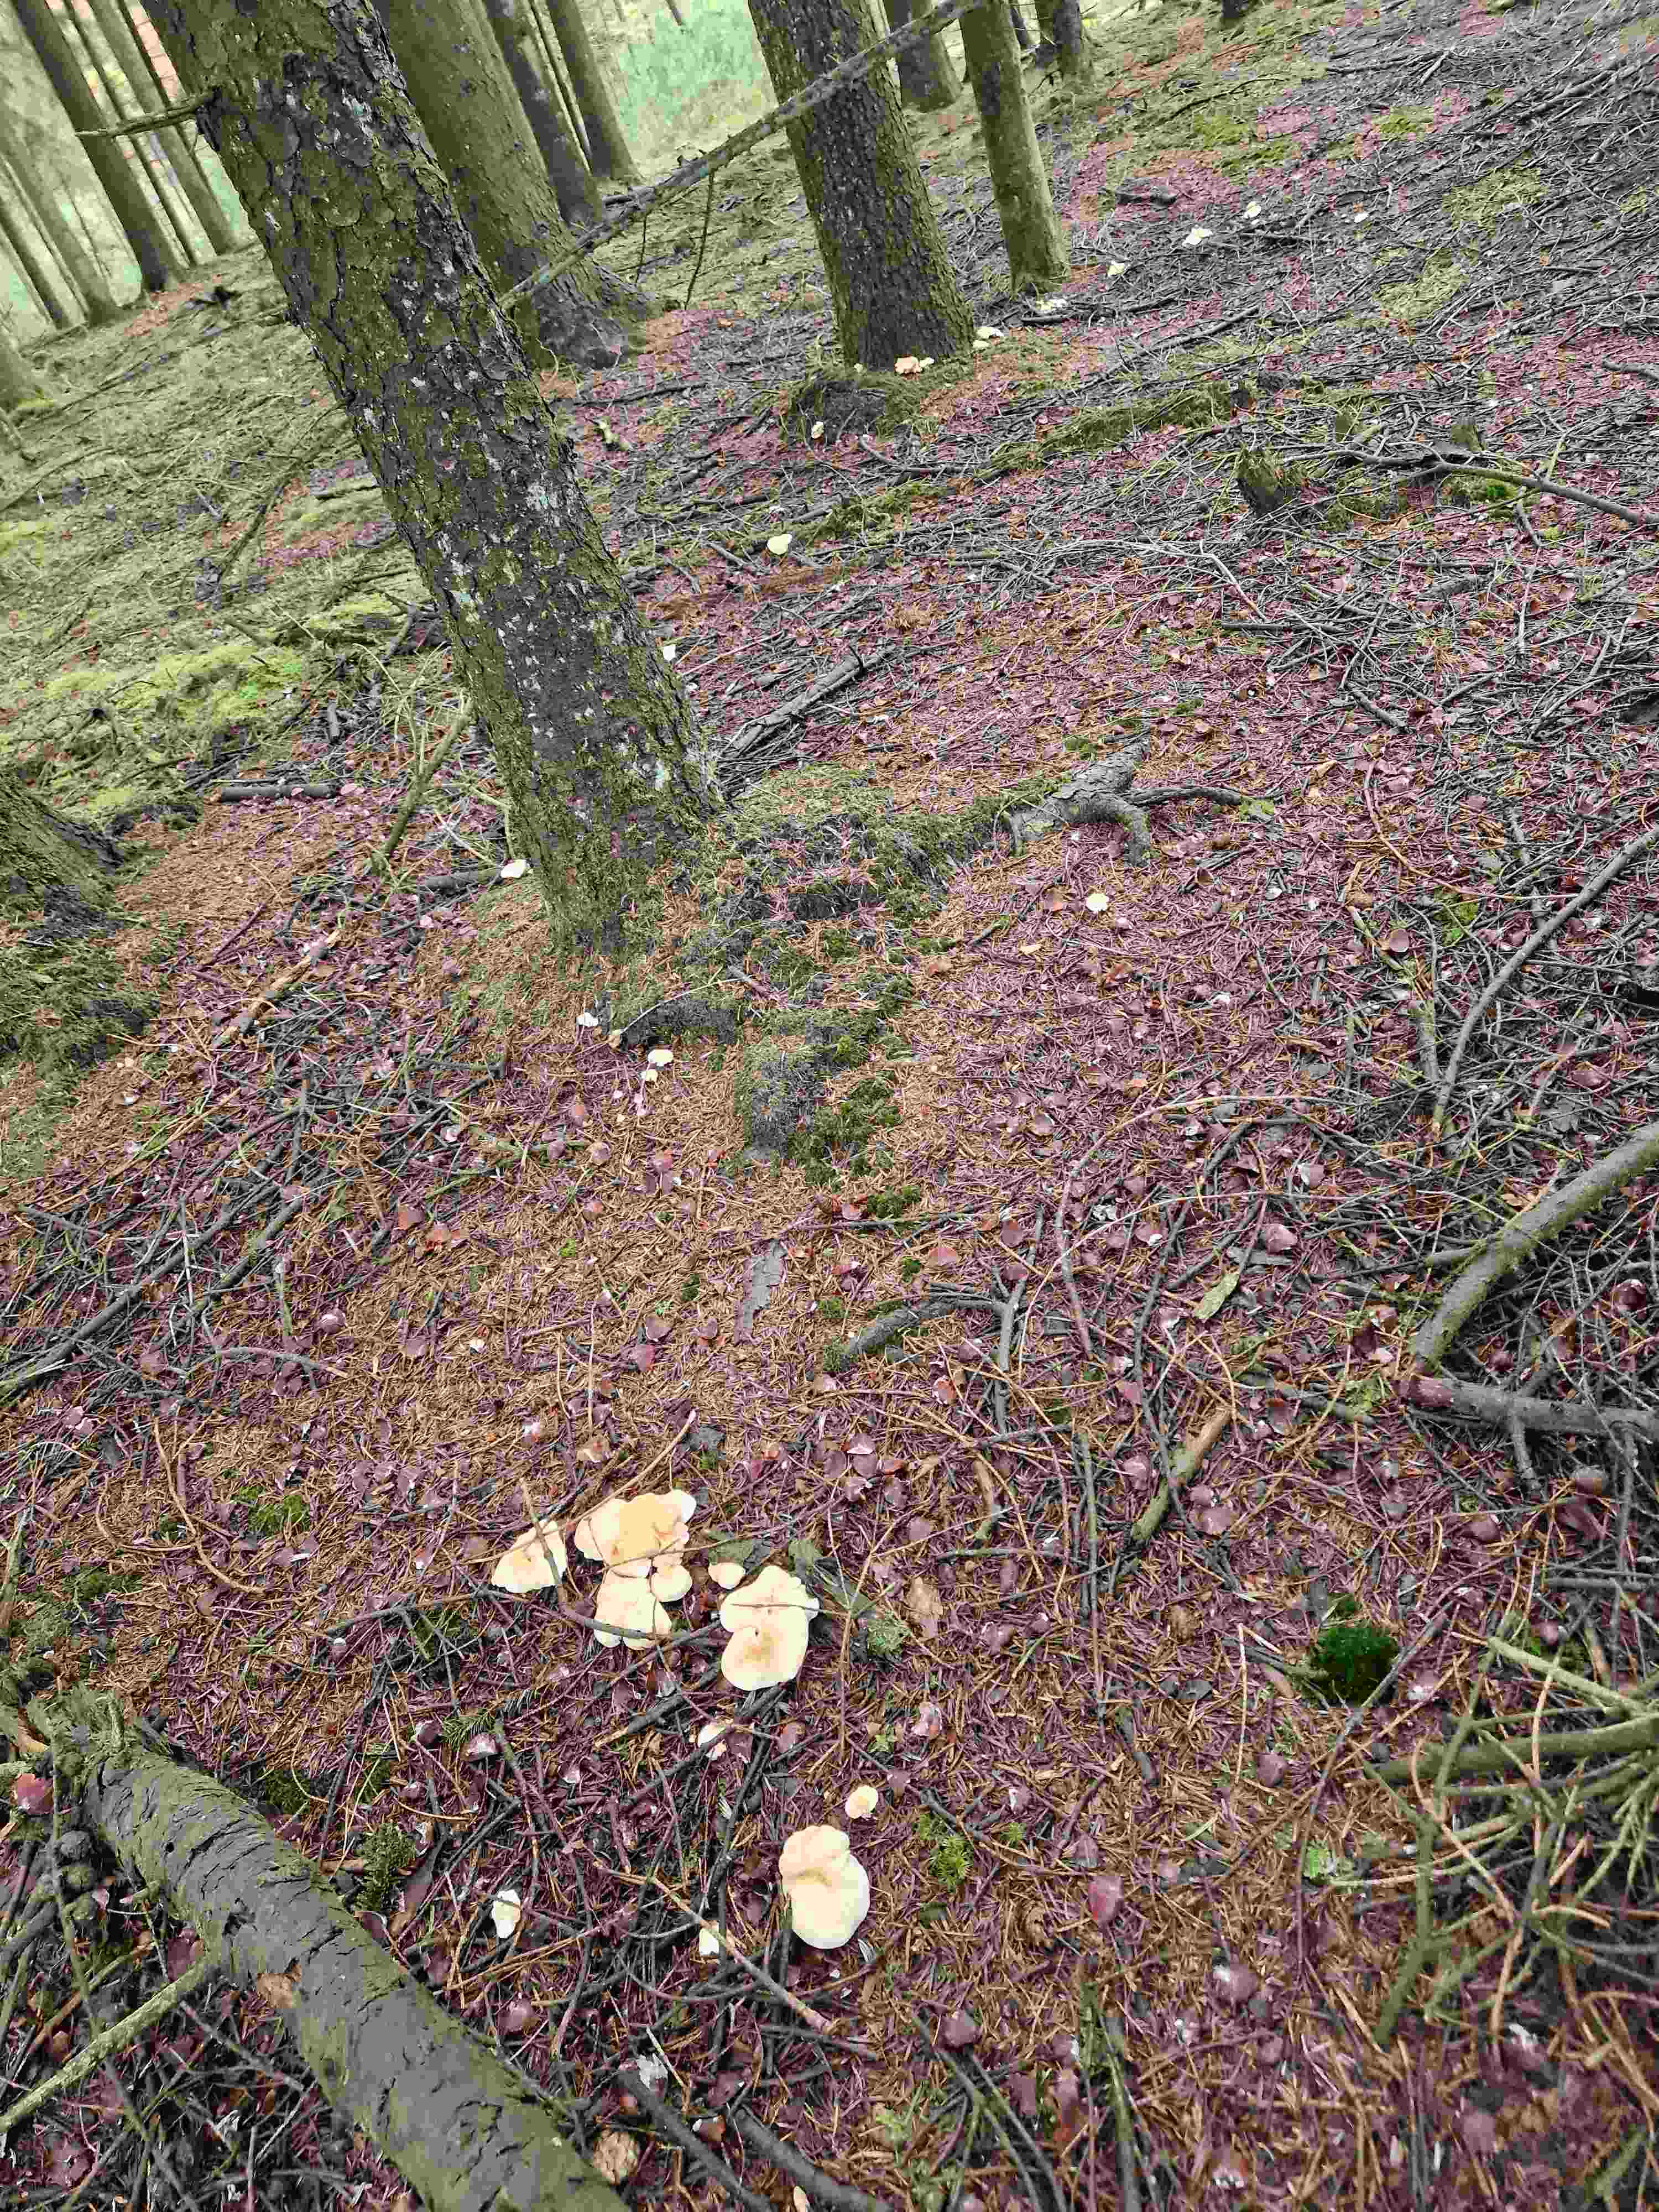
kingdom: Fungi
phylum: Basidiomycota
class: Agaricomycetes
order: Cantharellales
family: Hydnaceae
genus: Hydnum
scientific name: Hydnum repandum
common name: almindelig pigsvamp
